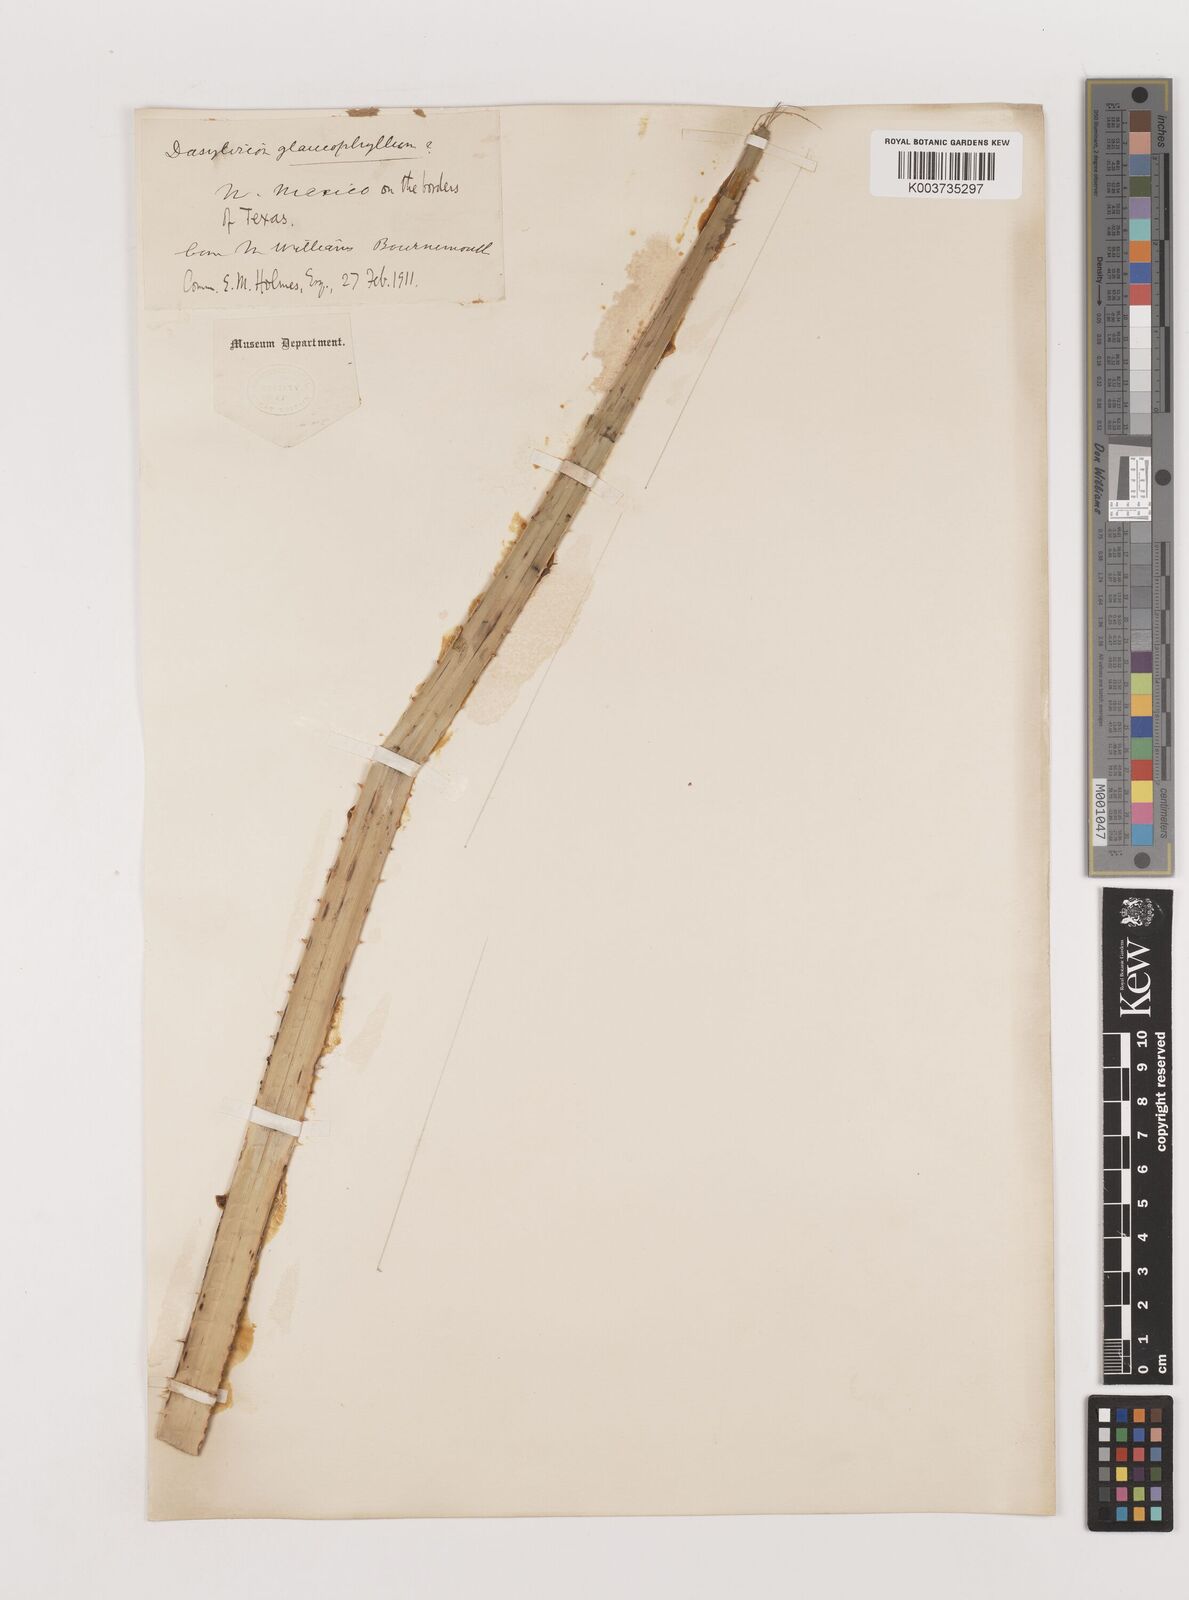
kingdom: Plantae
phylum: Tracheophyta
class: Liliopsida
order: Asparagales
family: Asparagaceae
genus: Dasylirion
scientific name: Dasylirion glaucophyllum
